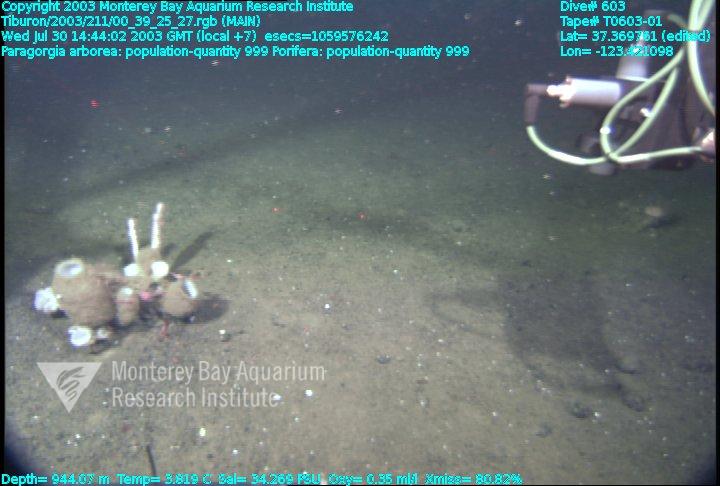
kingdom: Animalia
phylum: Porifera
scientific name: Porifera
